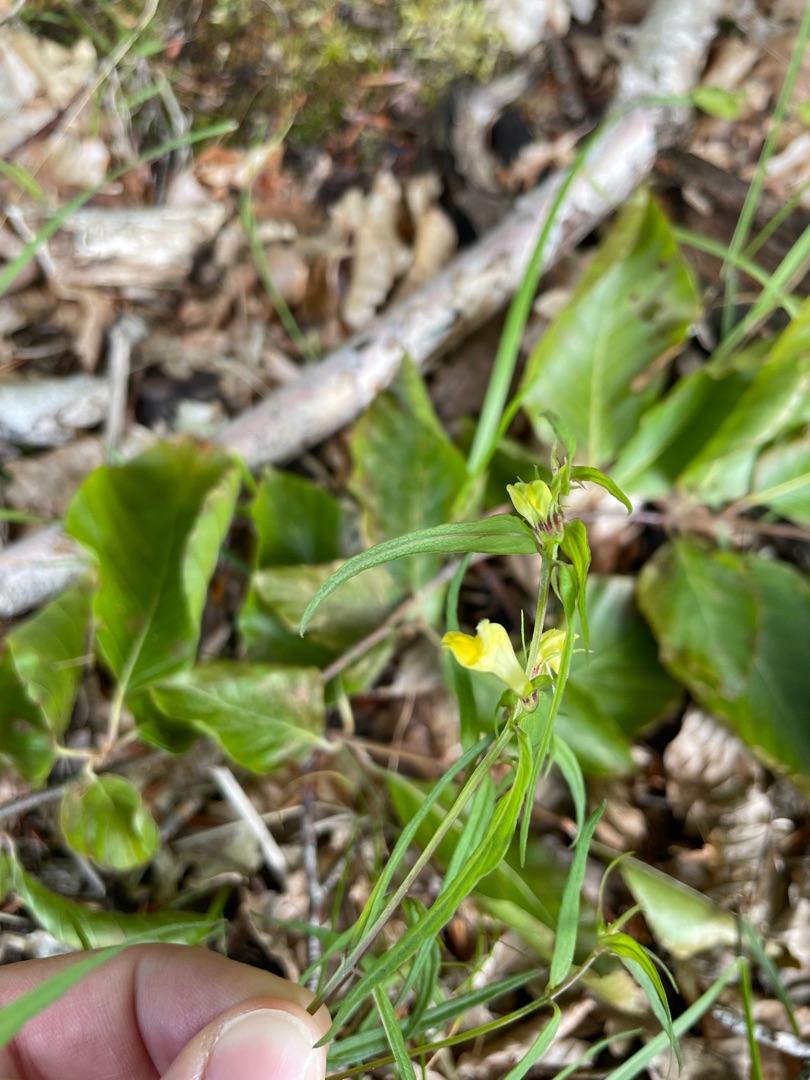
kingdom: Plantae
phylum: Tracheophyta
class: Magnoliopsida
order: Lamiales
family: Orobanchaceae
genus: Melampyrum
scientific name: Melampyrum pratense
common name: Almindelig kohvede
